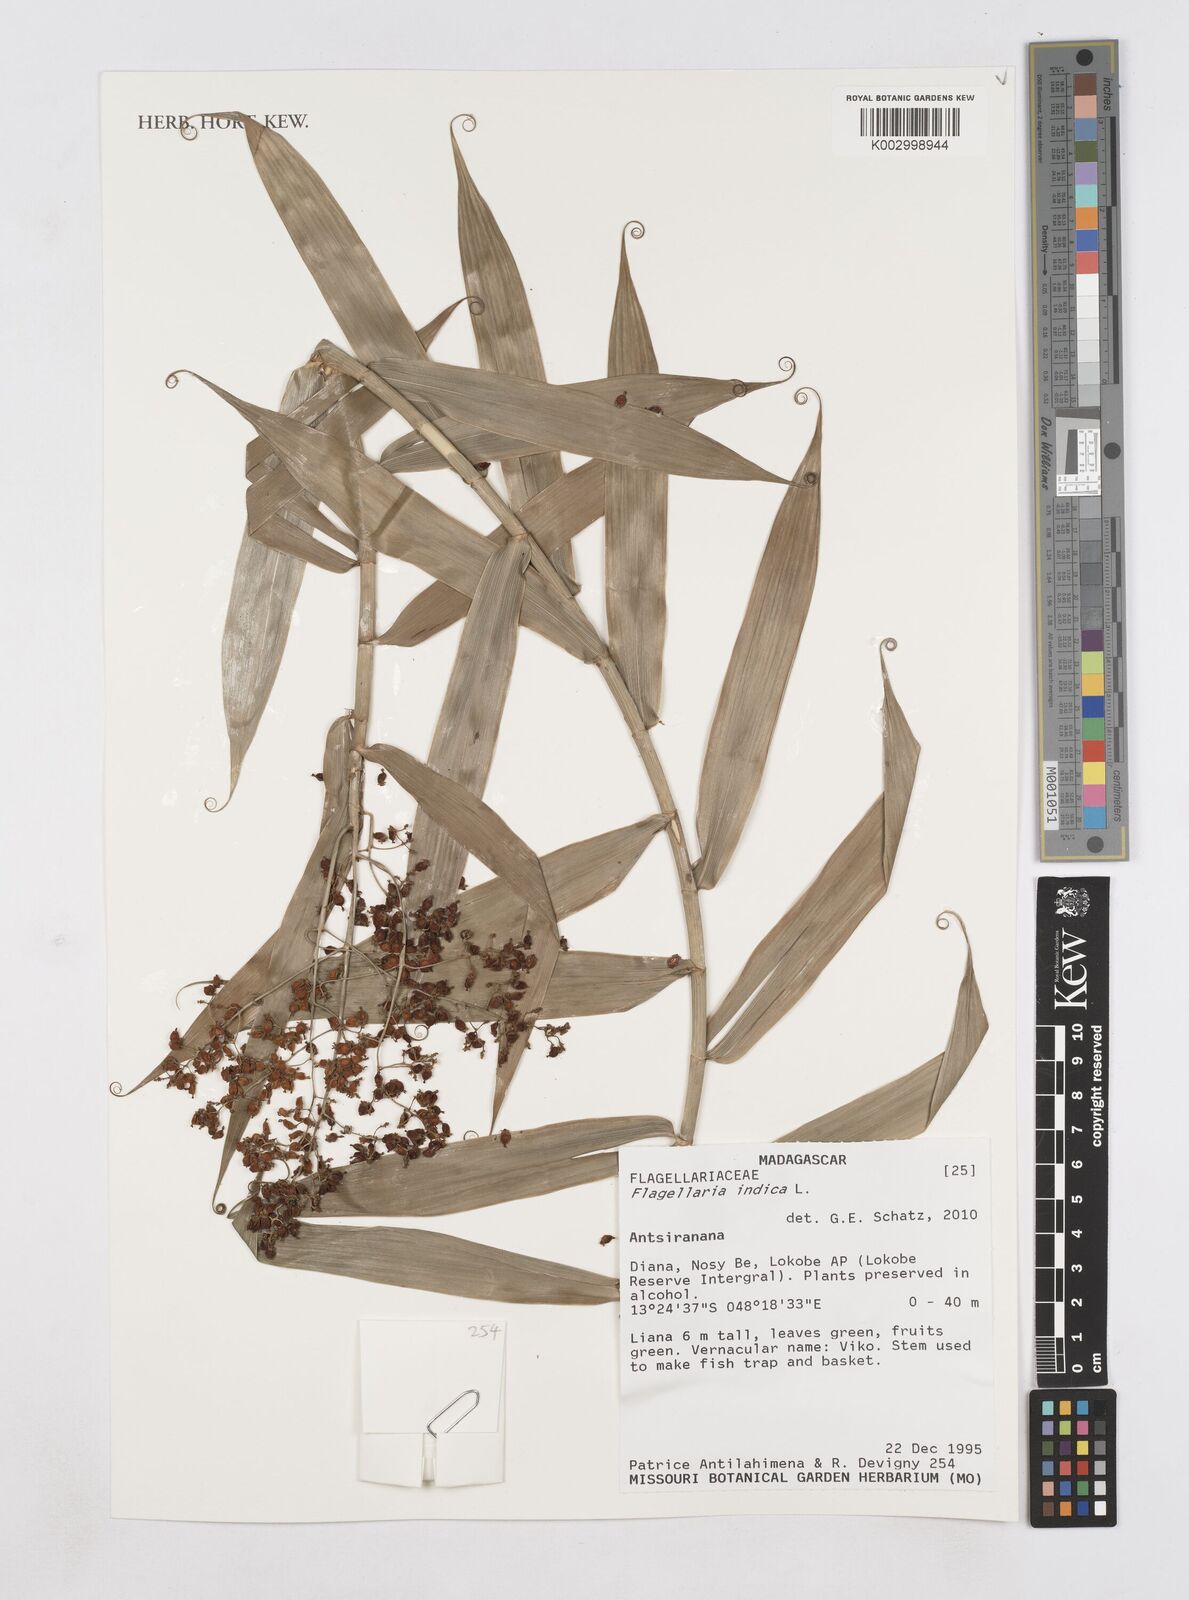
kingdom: Plantae
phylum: Tracheophyta
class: Liliopsida
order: Poales
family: Flagellariaceae
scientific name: Flagellariaceae
